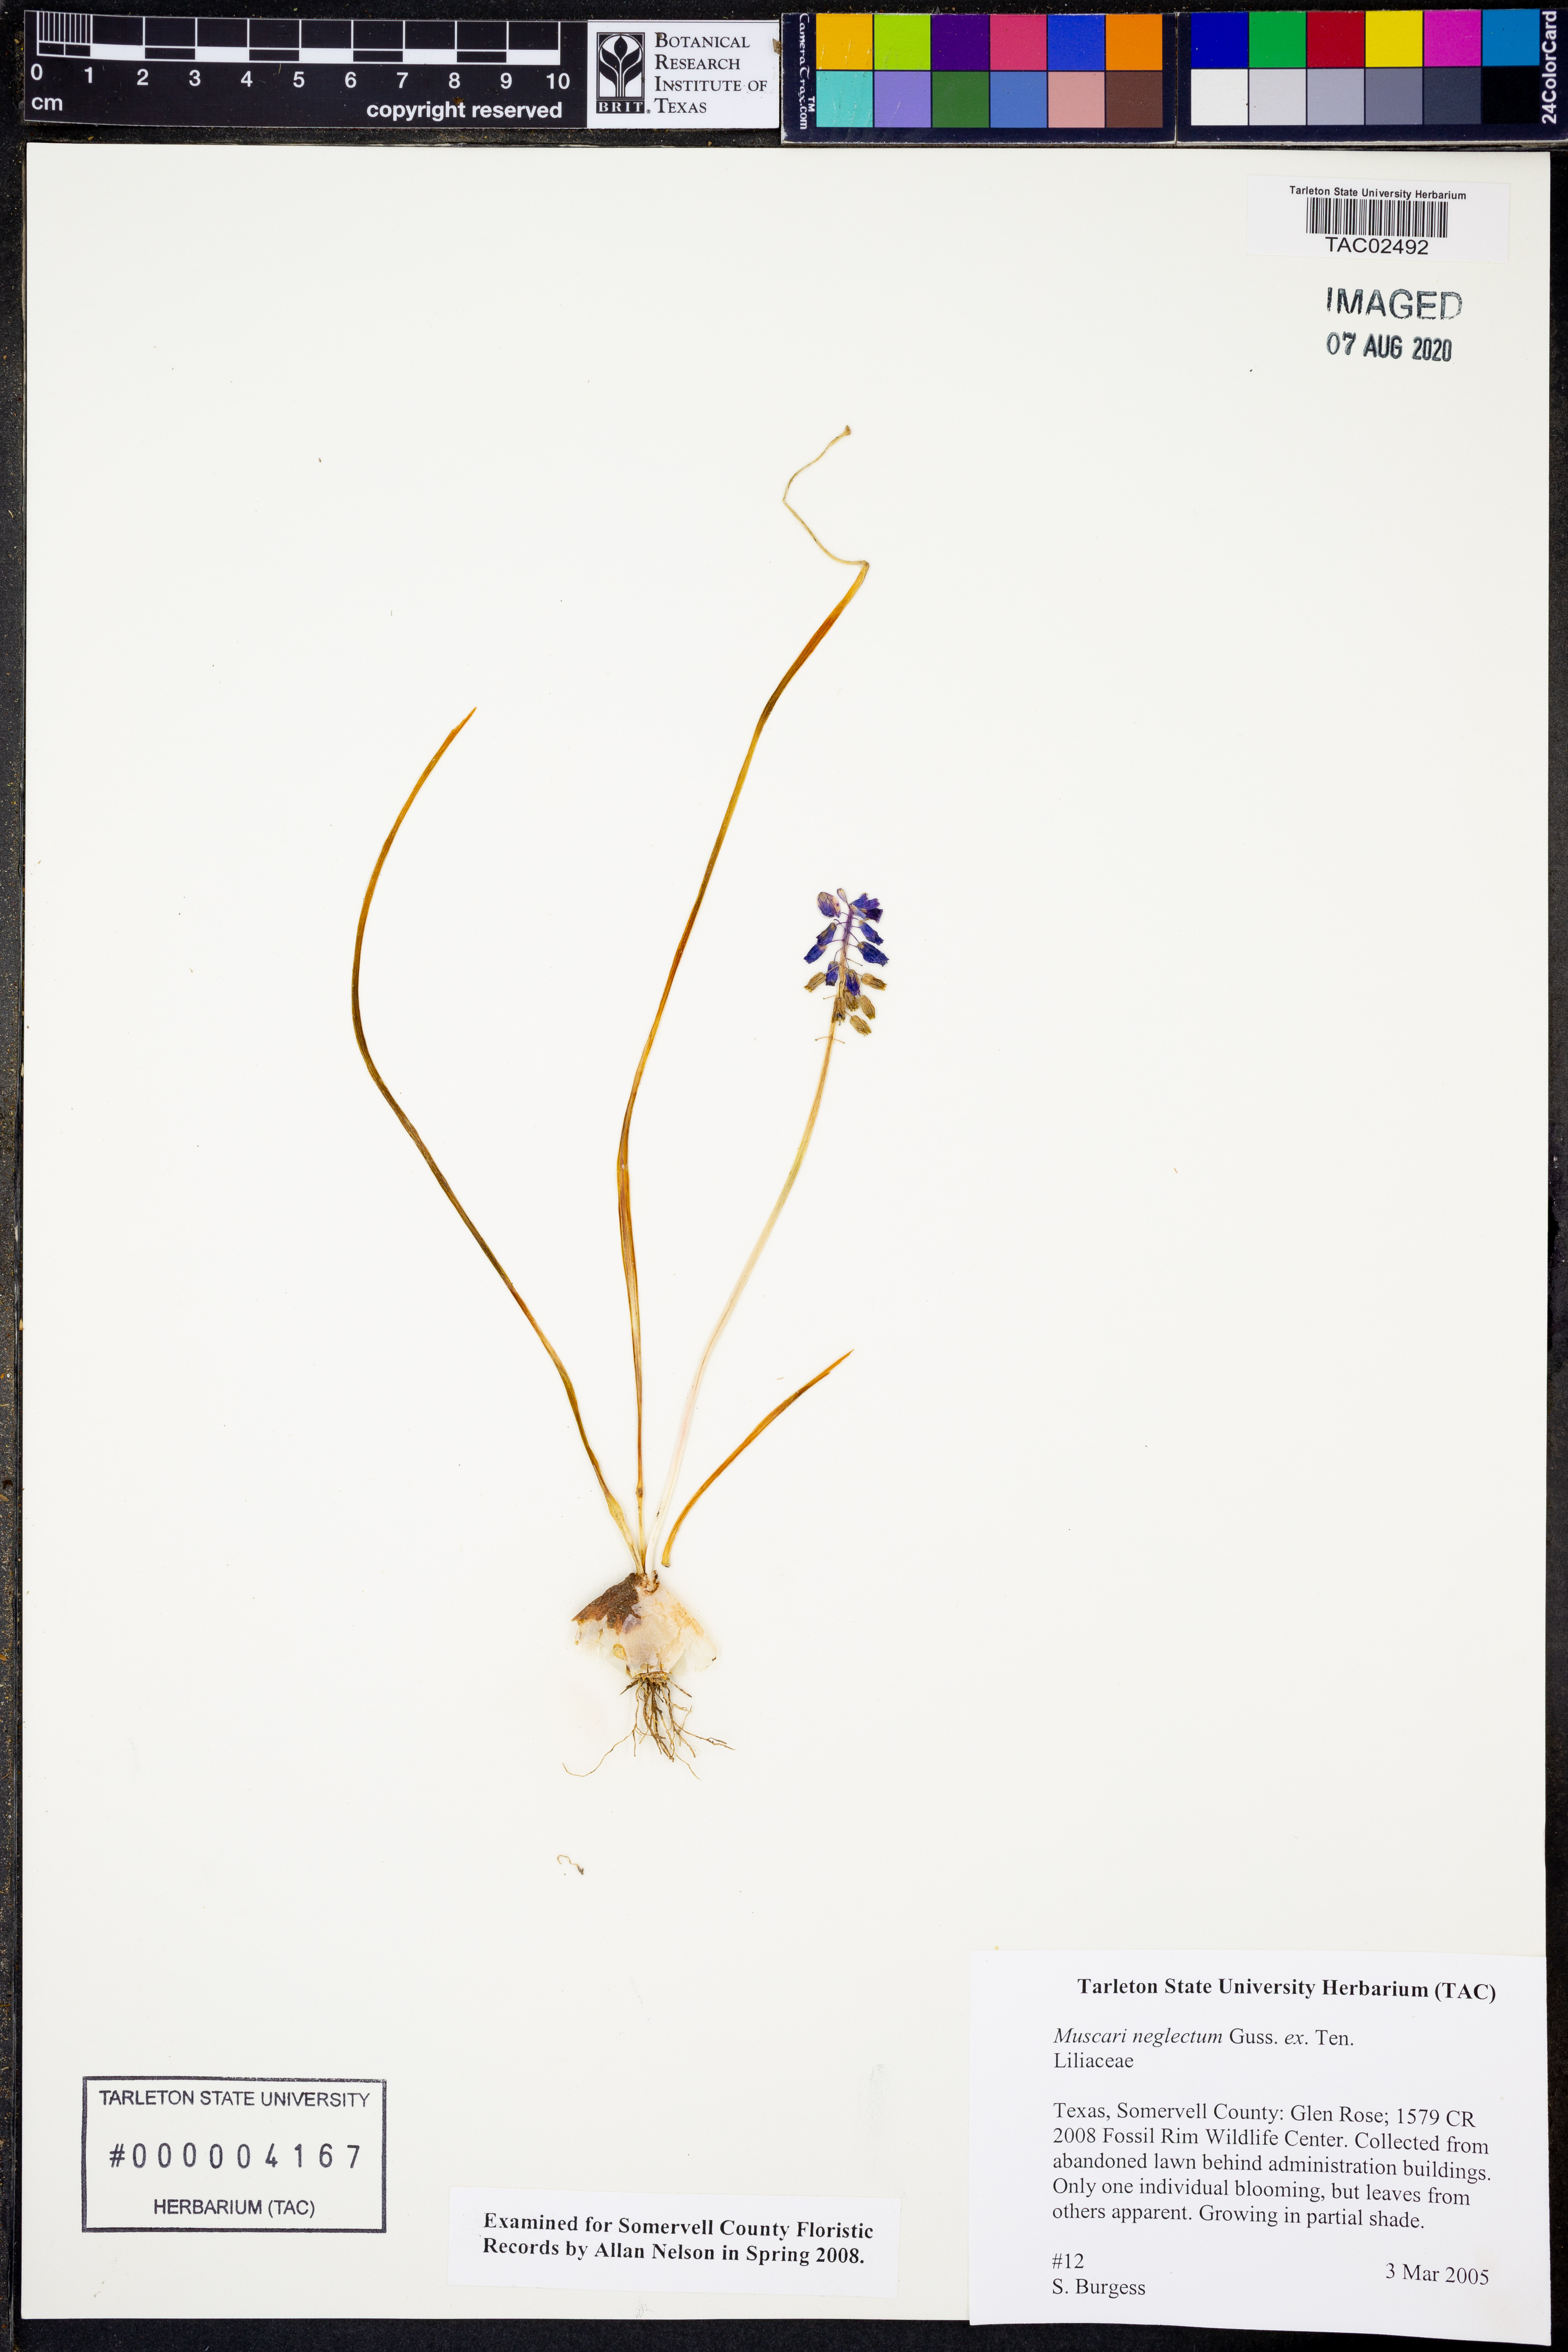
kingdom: Plantae
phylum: Tracheophyta
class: Liliopsida
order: Asparagales
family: Asparagaceae
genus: Muscari
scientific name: Muscari neglectum
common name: Grape-hyacinth
